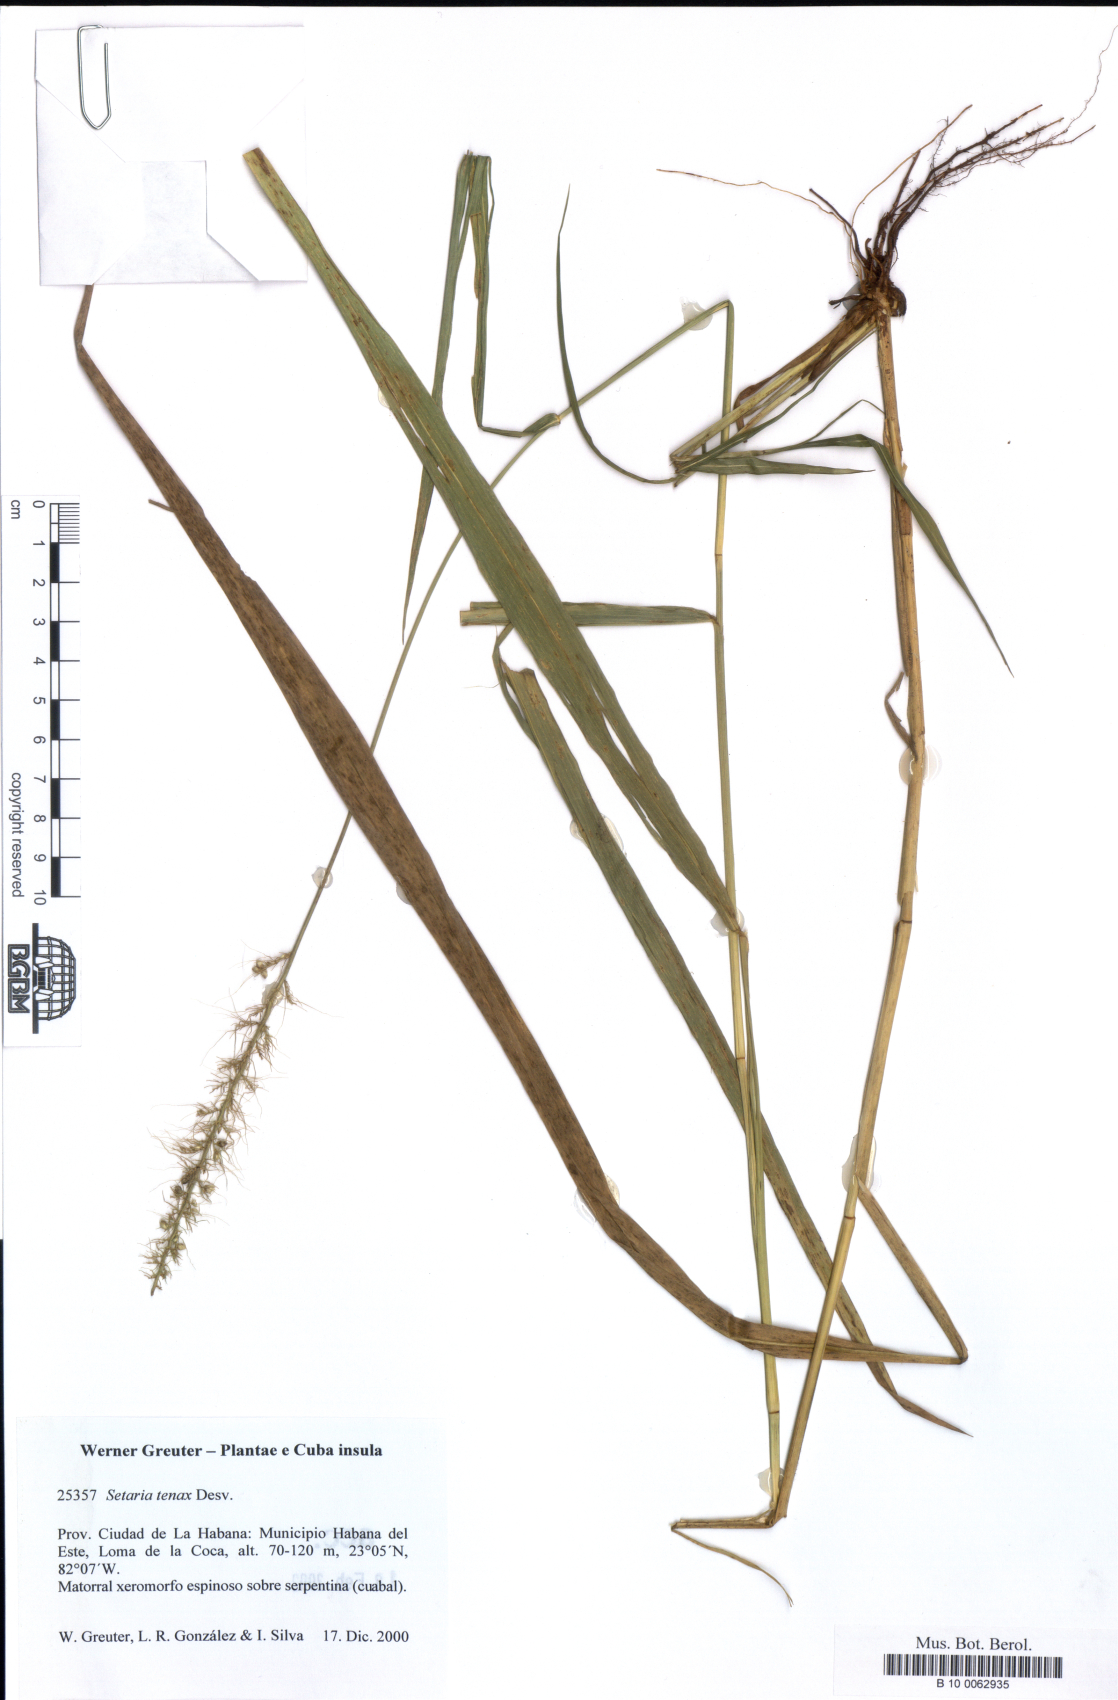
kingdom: Plantae
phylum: Tracheophyta
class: Liliopsida
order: Poales
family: Poaceae
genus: Setaria
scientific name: Setaria tenax
